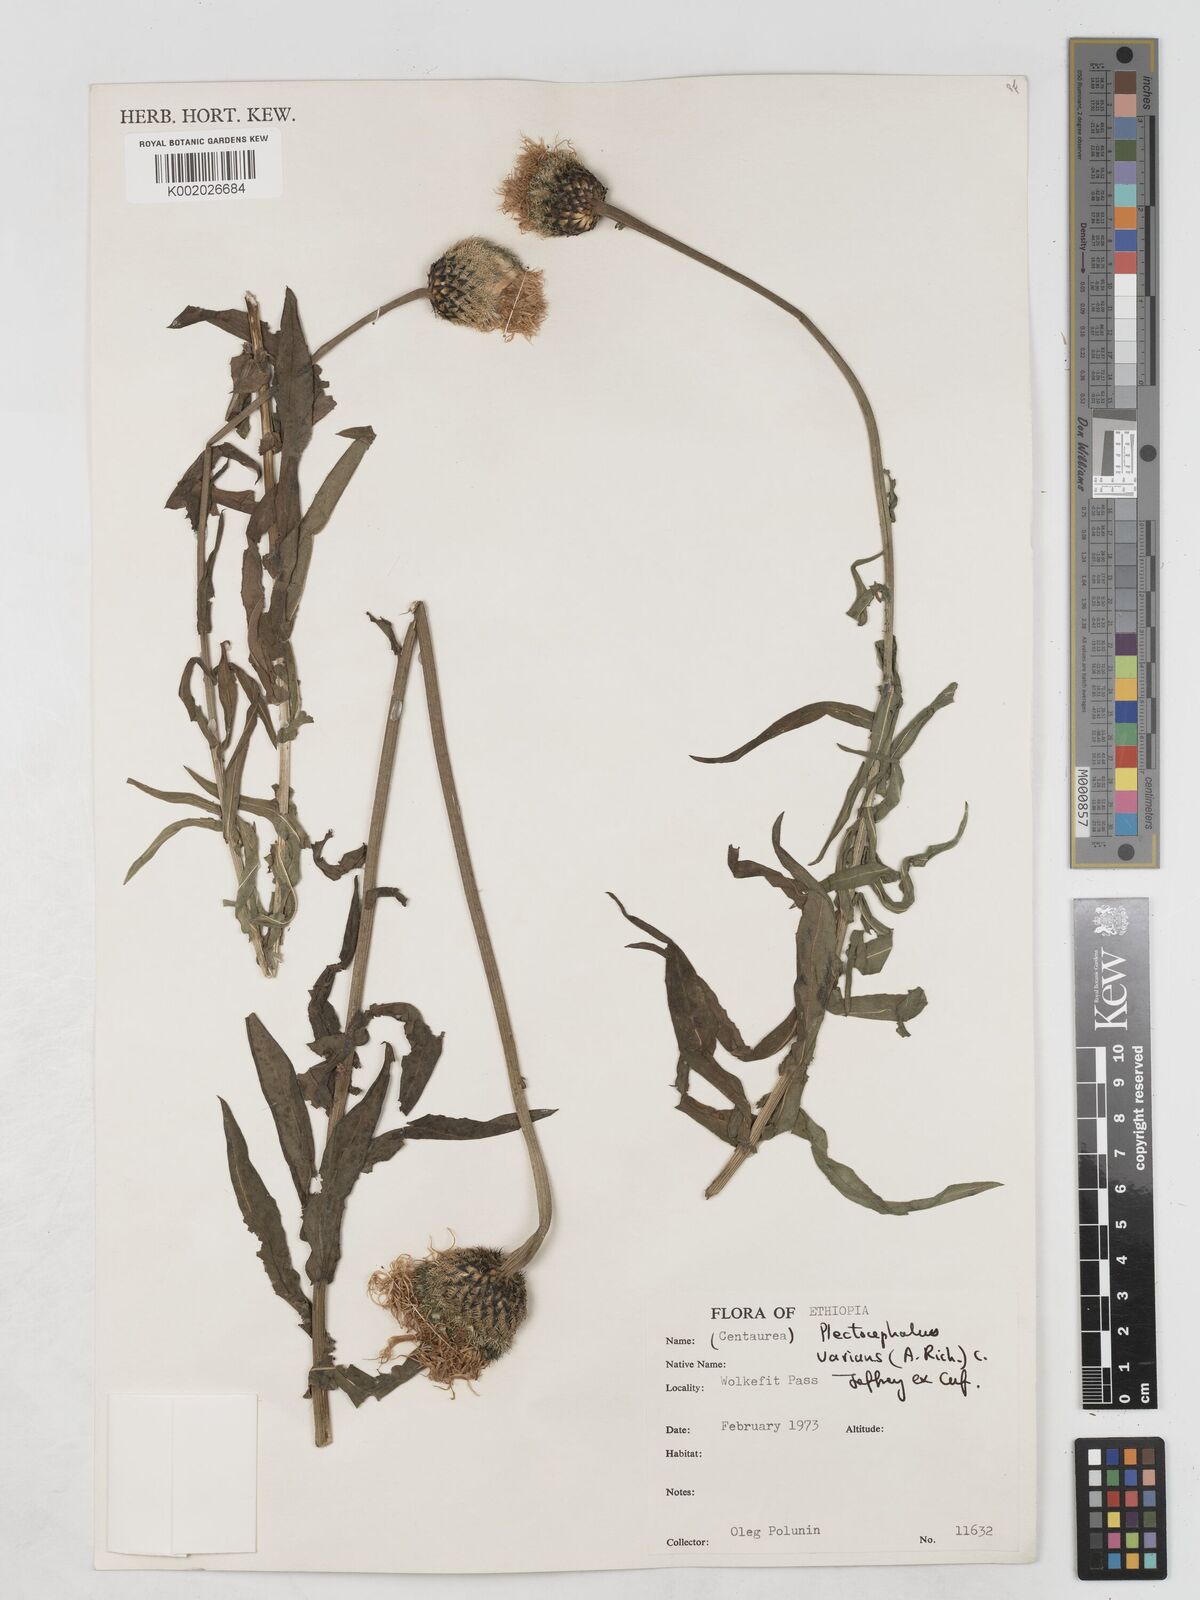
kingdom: Plantae
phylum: Tracheophyta
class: Magnoliopsida
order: Asterales
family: Asteraceae
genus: Plectocephalus
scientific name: Plectocephalus varians
